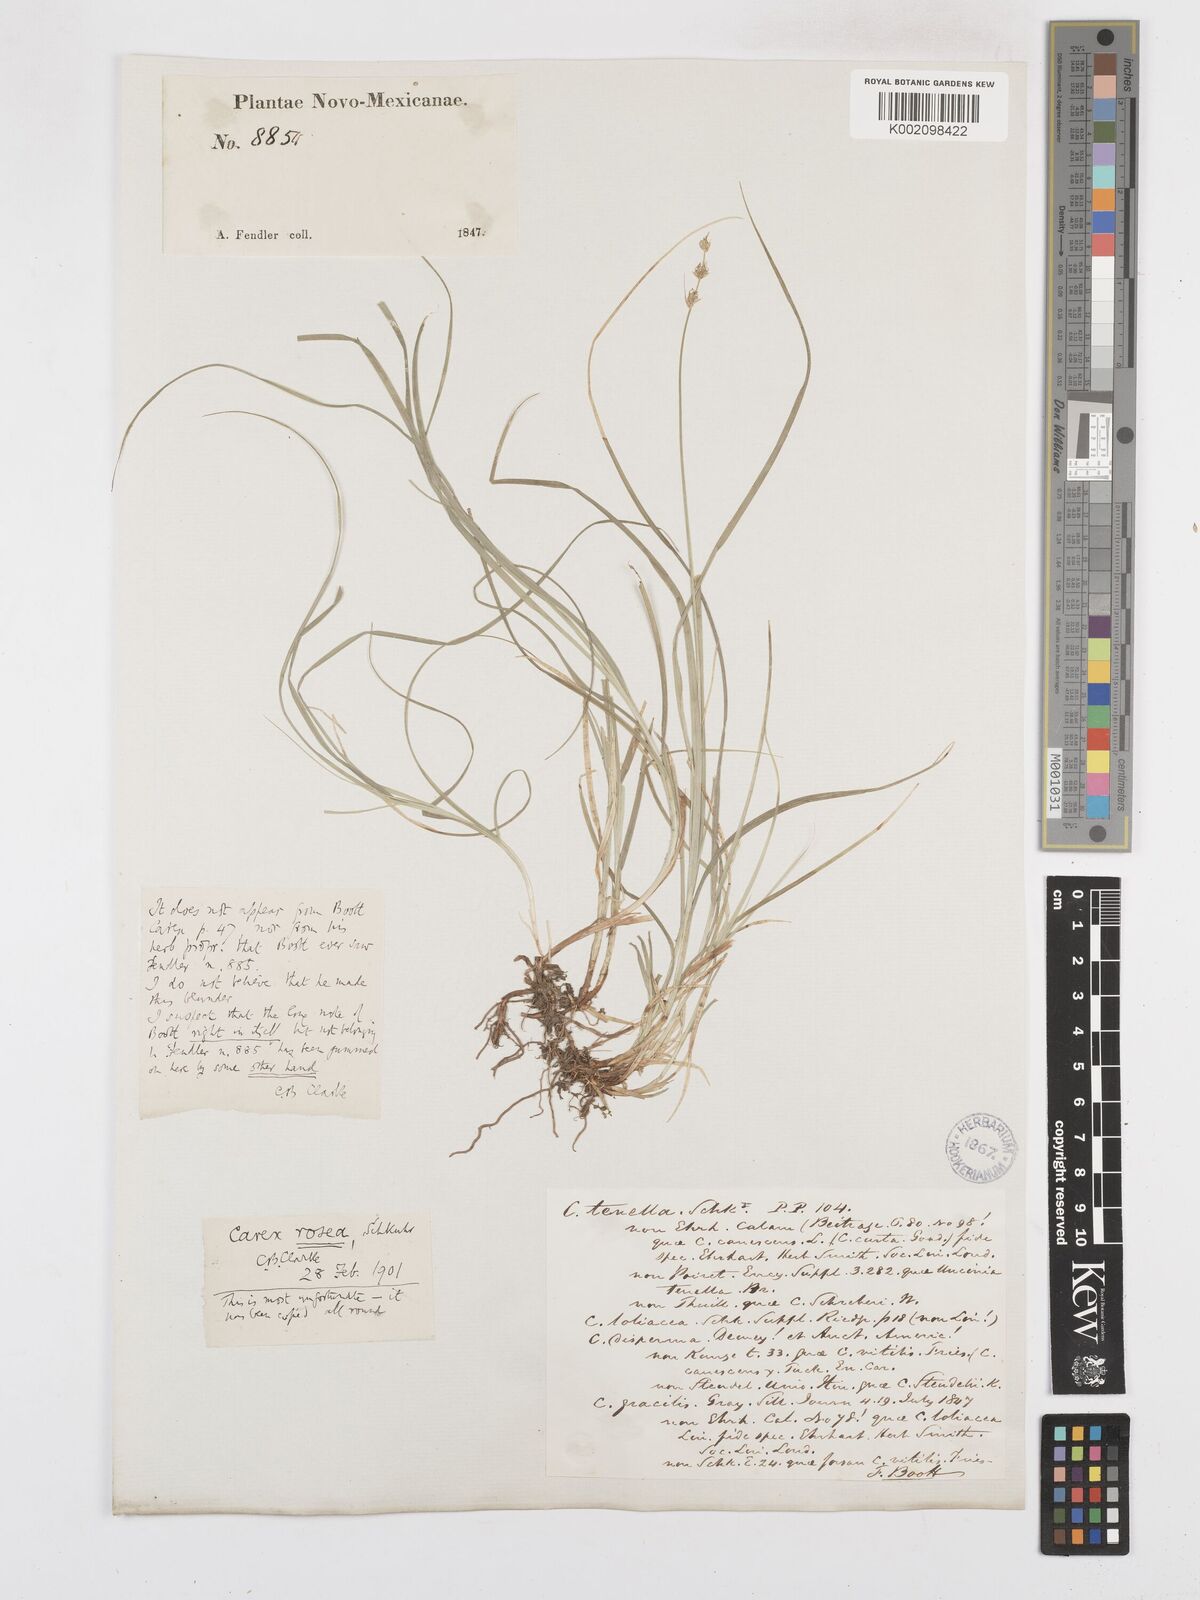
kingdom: Plantae
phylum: Tracheophyta
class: Liliopsida
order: Poales
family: Cyperaceae
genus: Carex
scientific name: Carex
